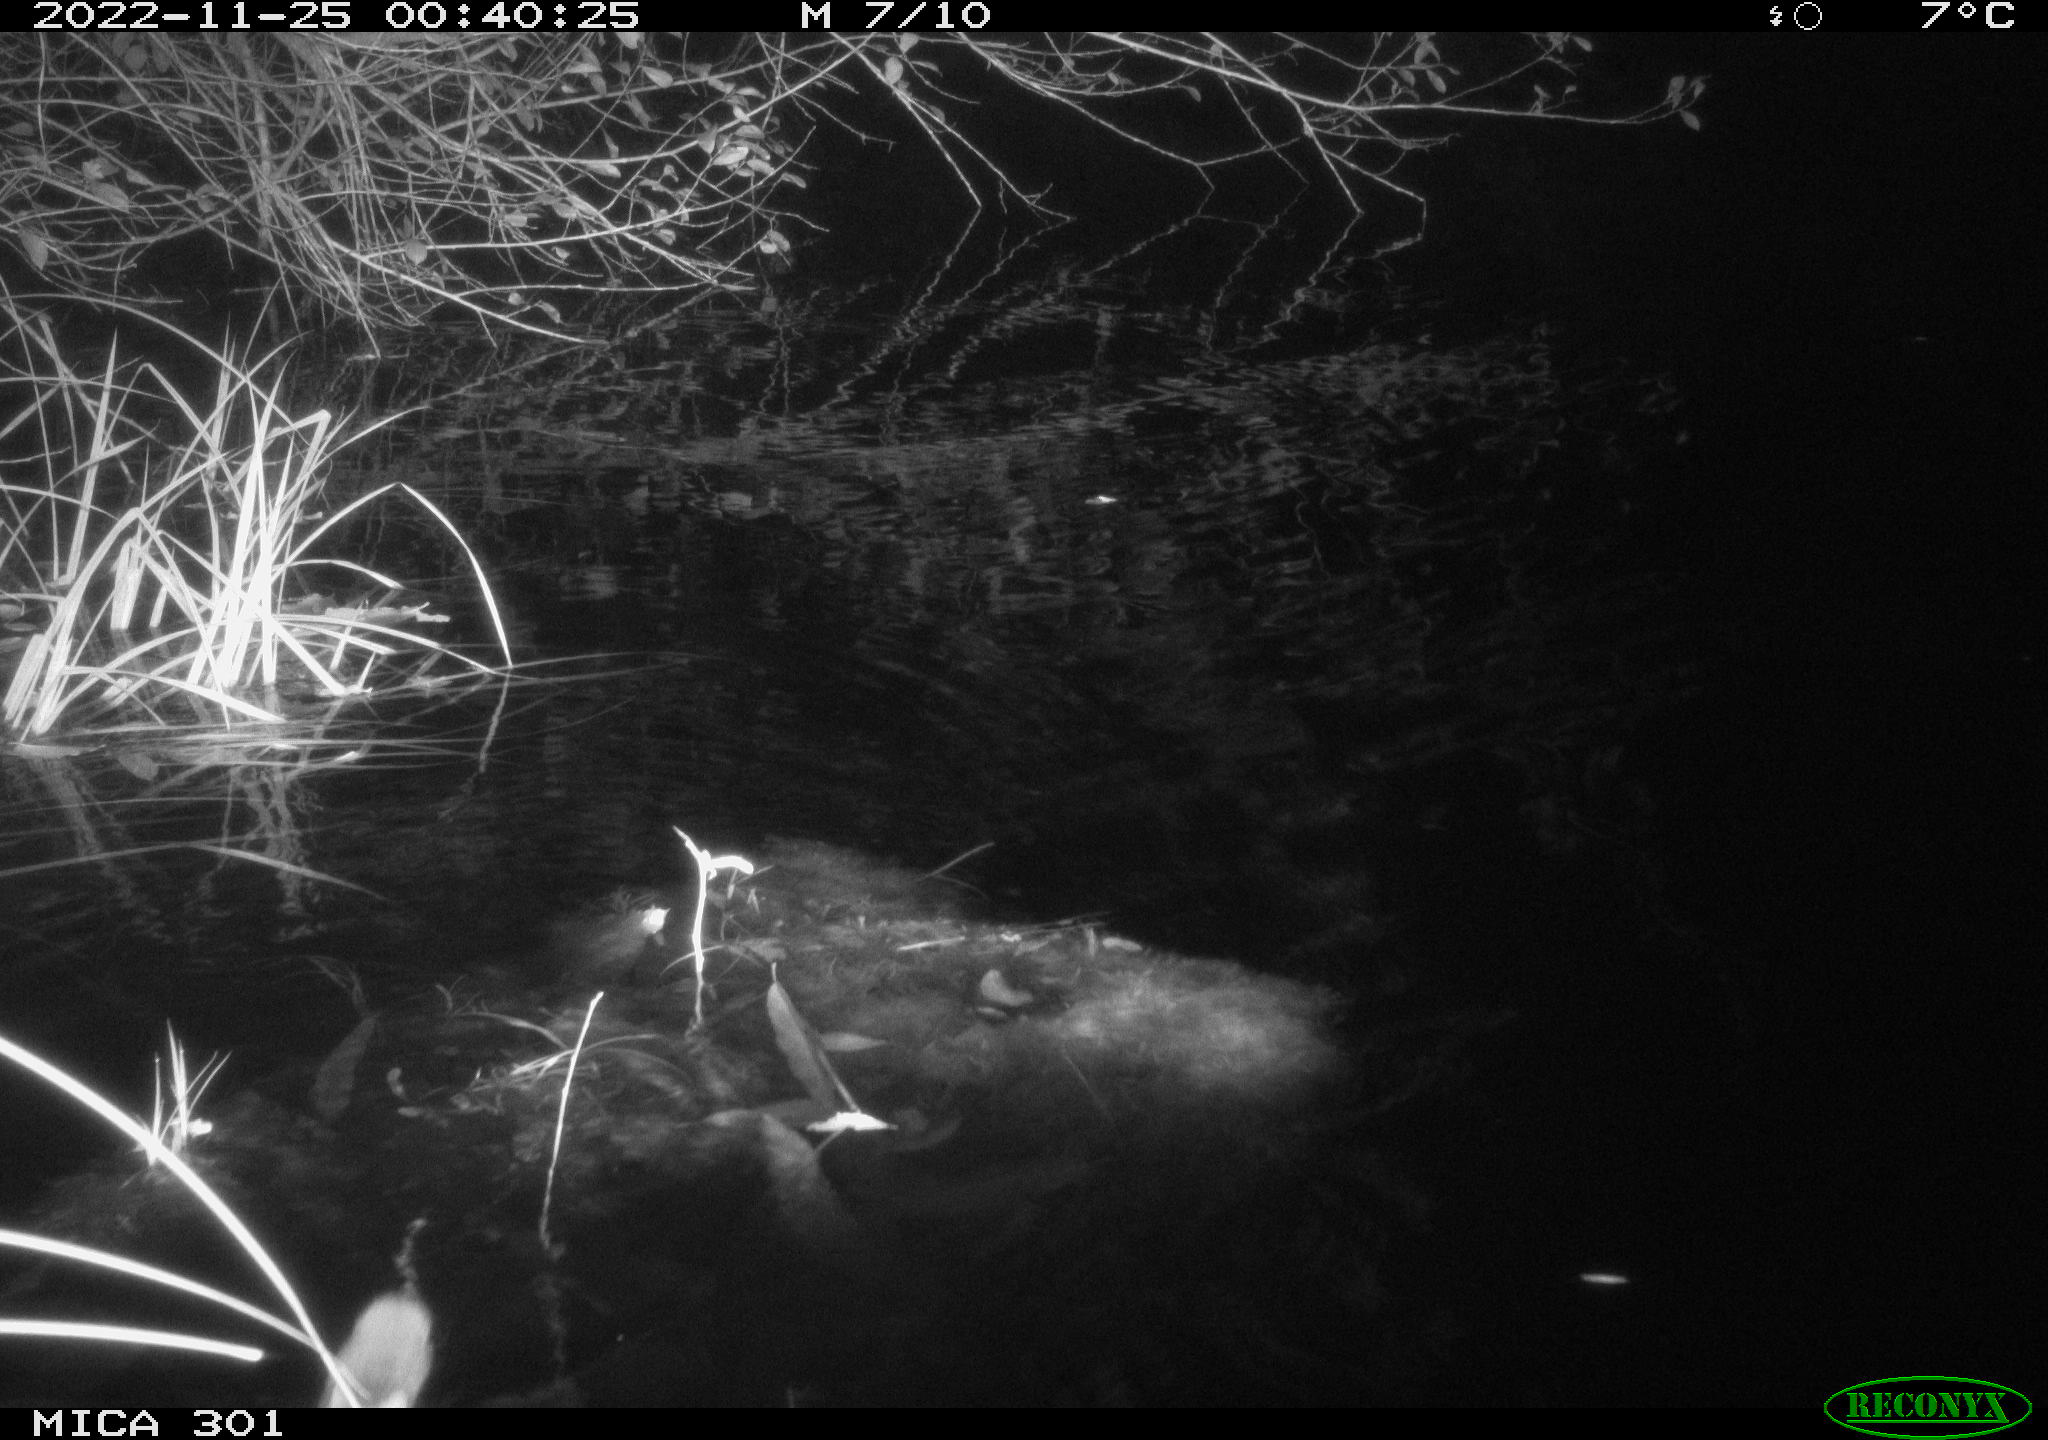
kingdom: Animalia
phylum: Chordata
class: Mammalia
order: Rodentia
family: Muridae
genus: Rattus
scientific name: Rattus norvegicus
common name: Brown rat
